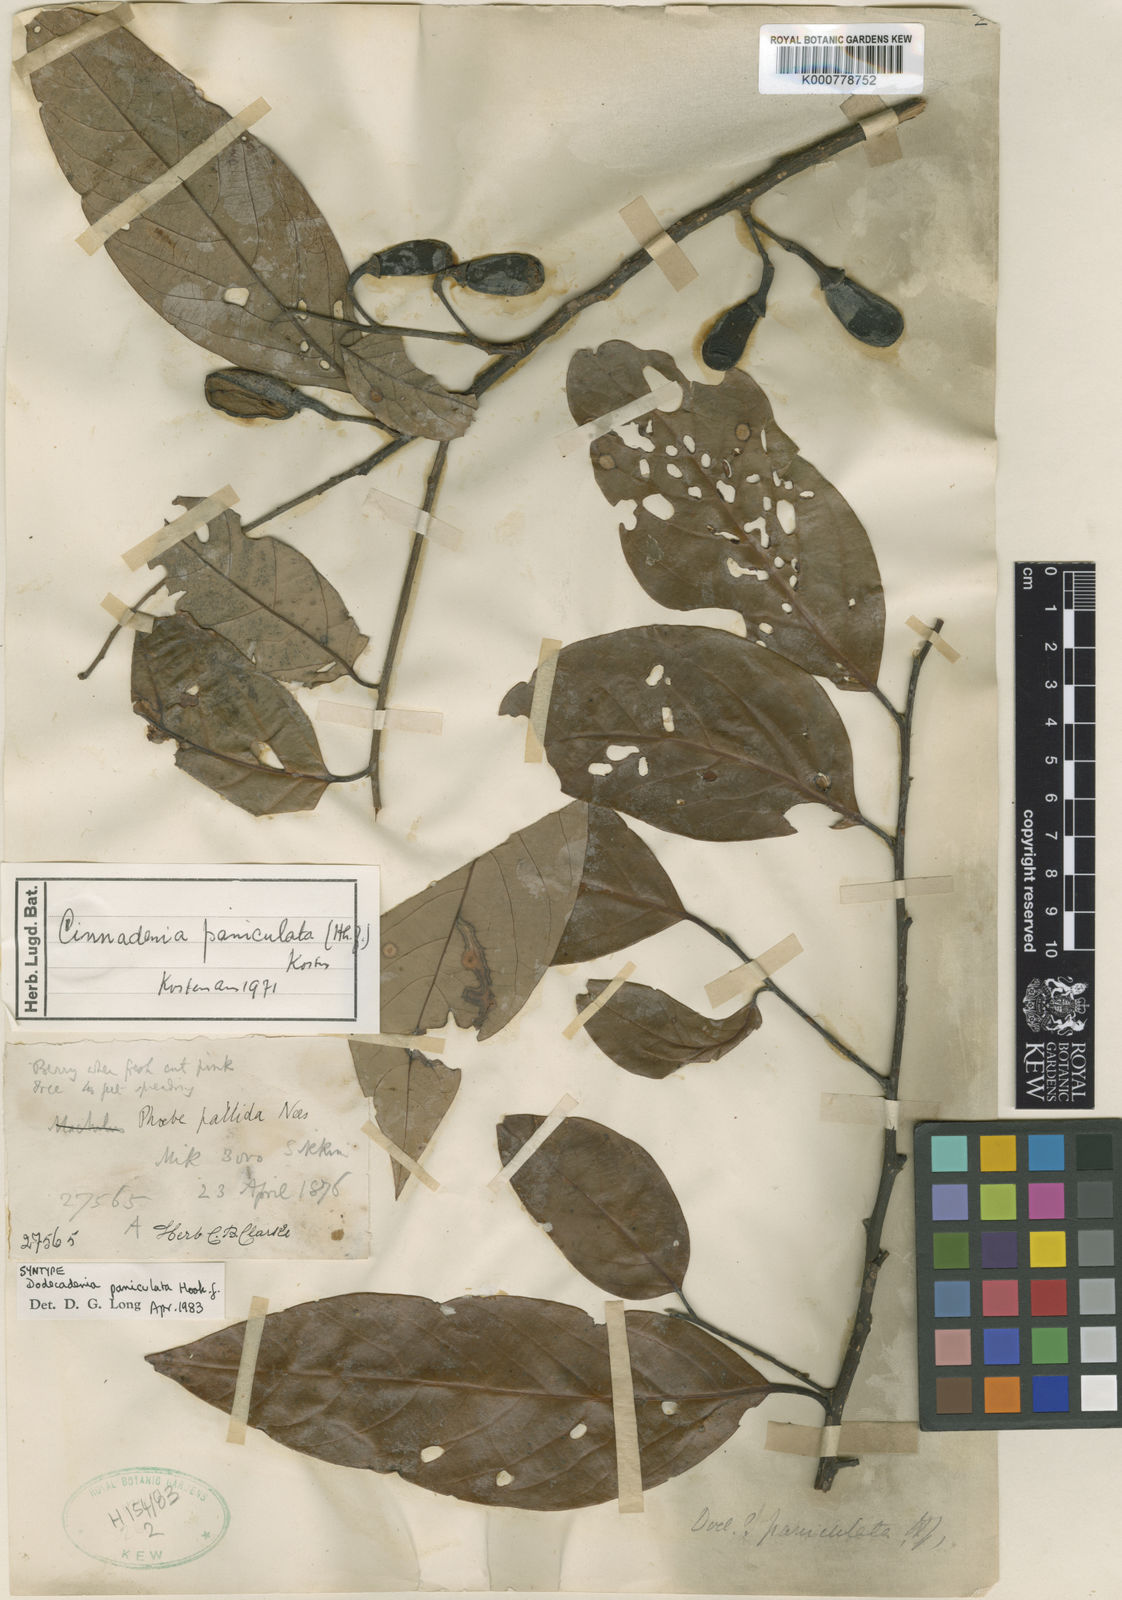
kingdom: Plantae
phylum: Tracheophyta
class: Magnoliopsida
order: Laurales
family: Lauraceae
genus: Cinnadenia
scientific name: Cinnadenia paniculata
